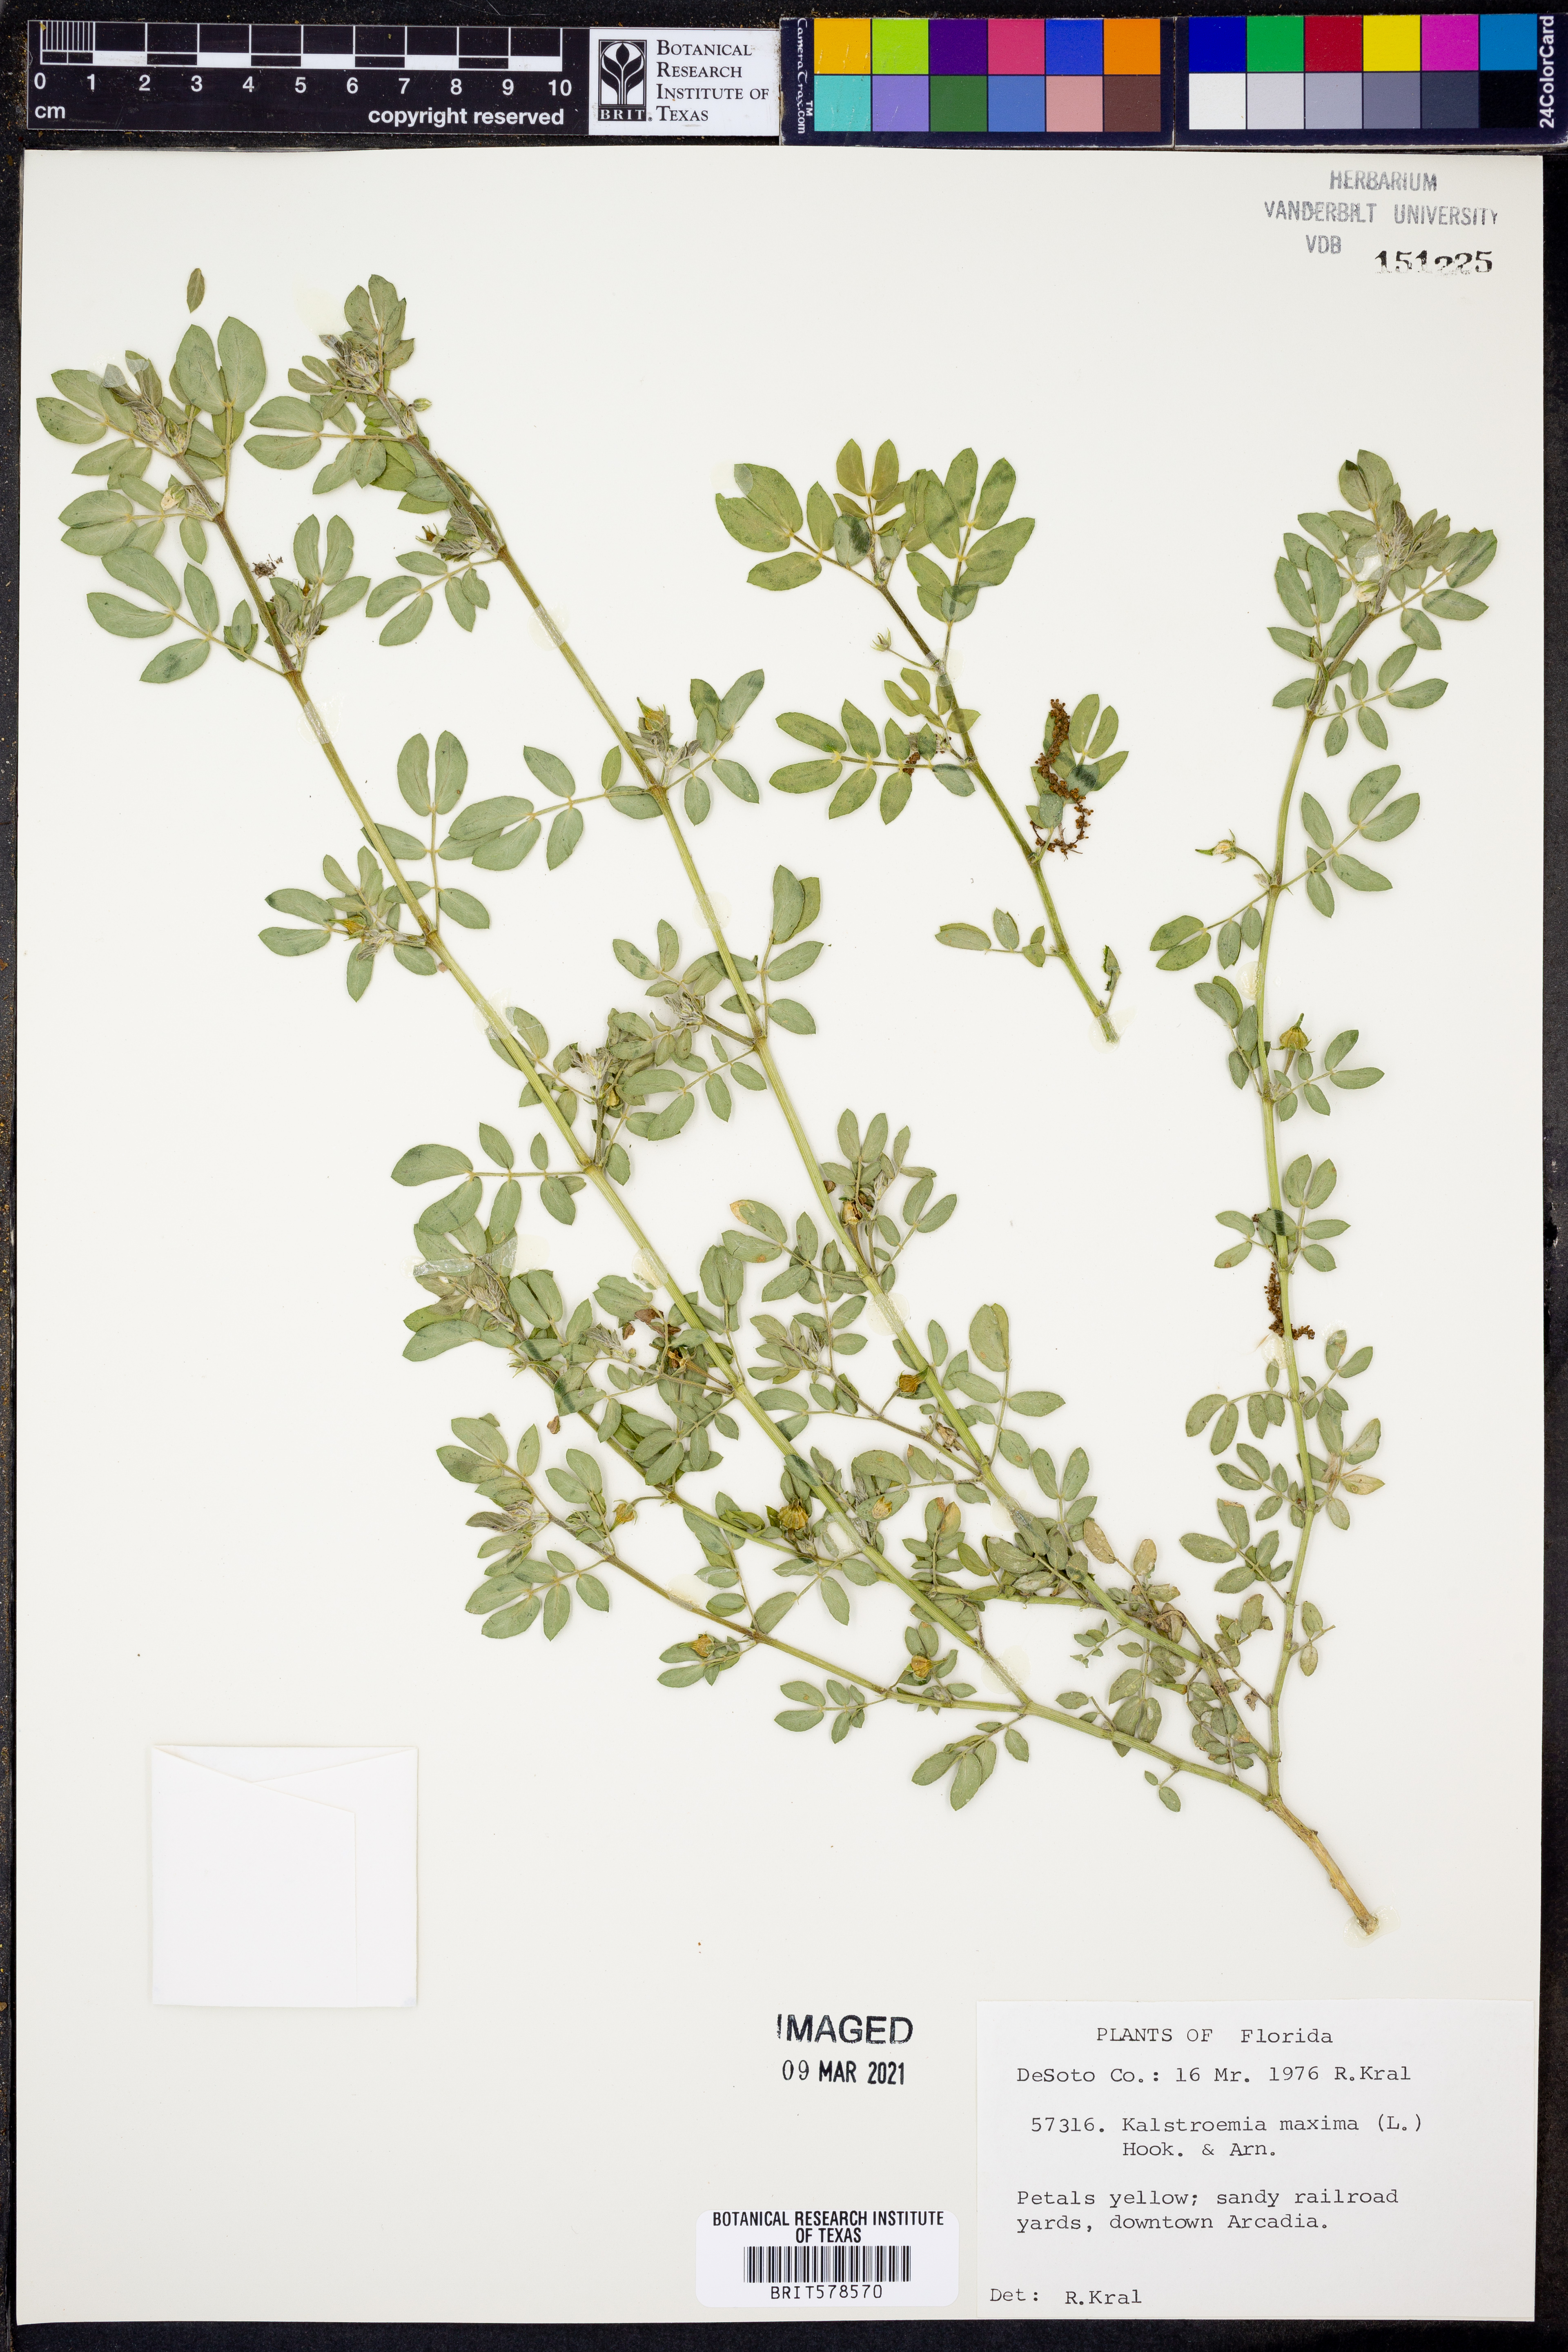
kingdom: Plantae
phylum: Tracheophyta
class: Magnoliopsida
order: Zygophyllales
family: Zygophyllaceae
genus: Kallstroemia
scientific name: Kallstroemia maxima
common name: Big caltropa
